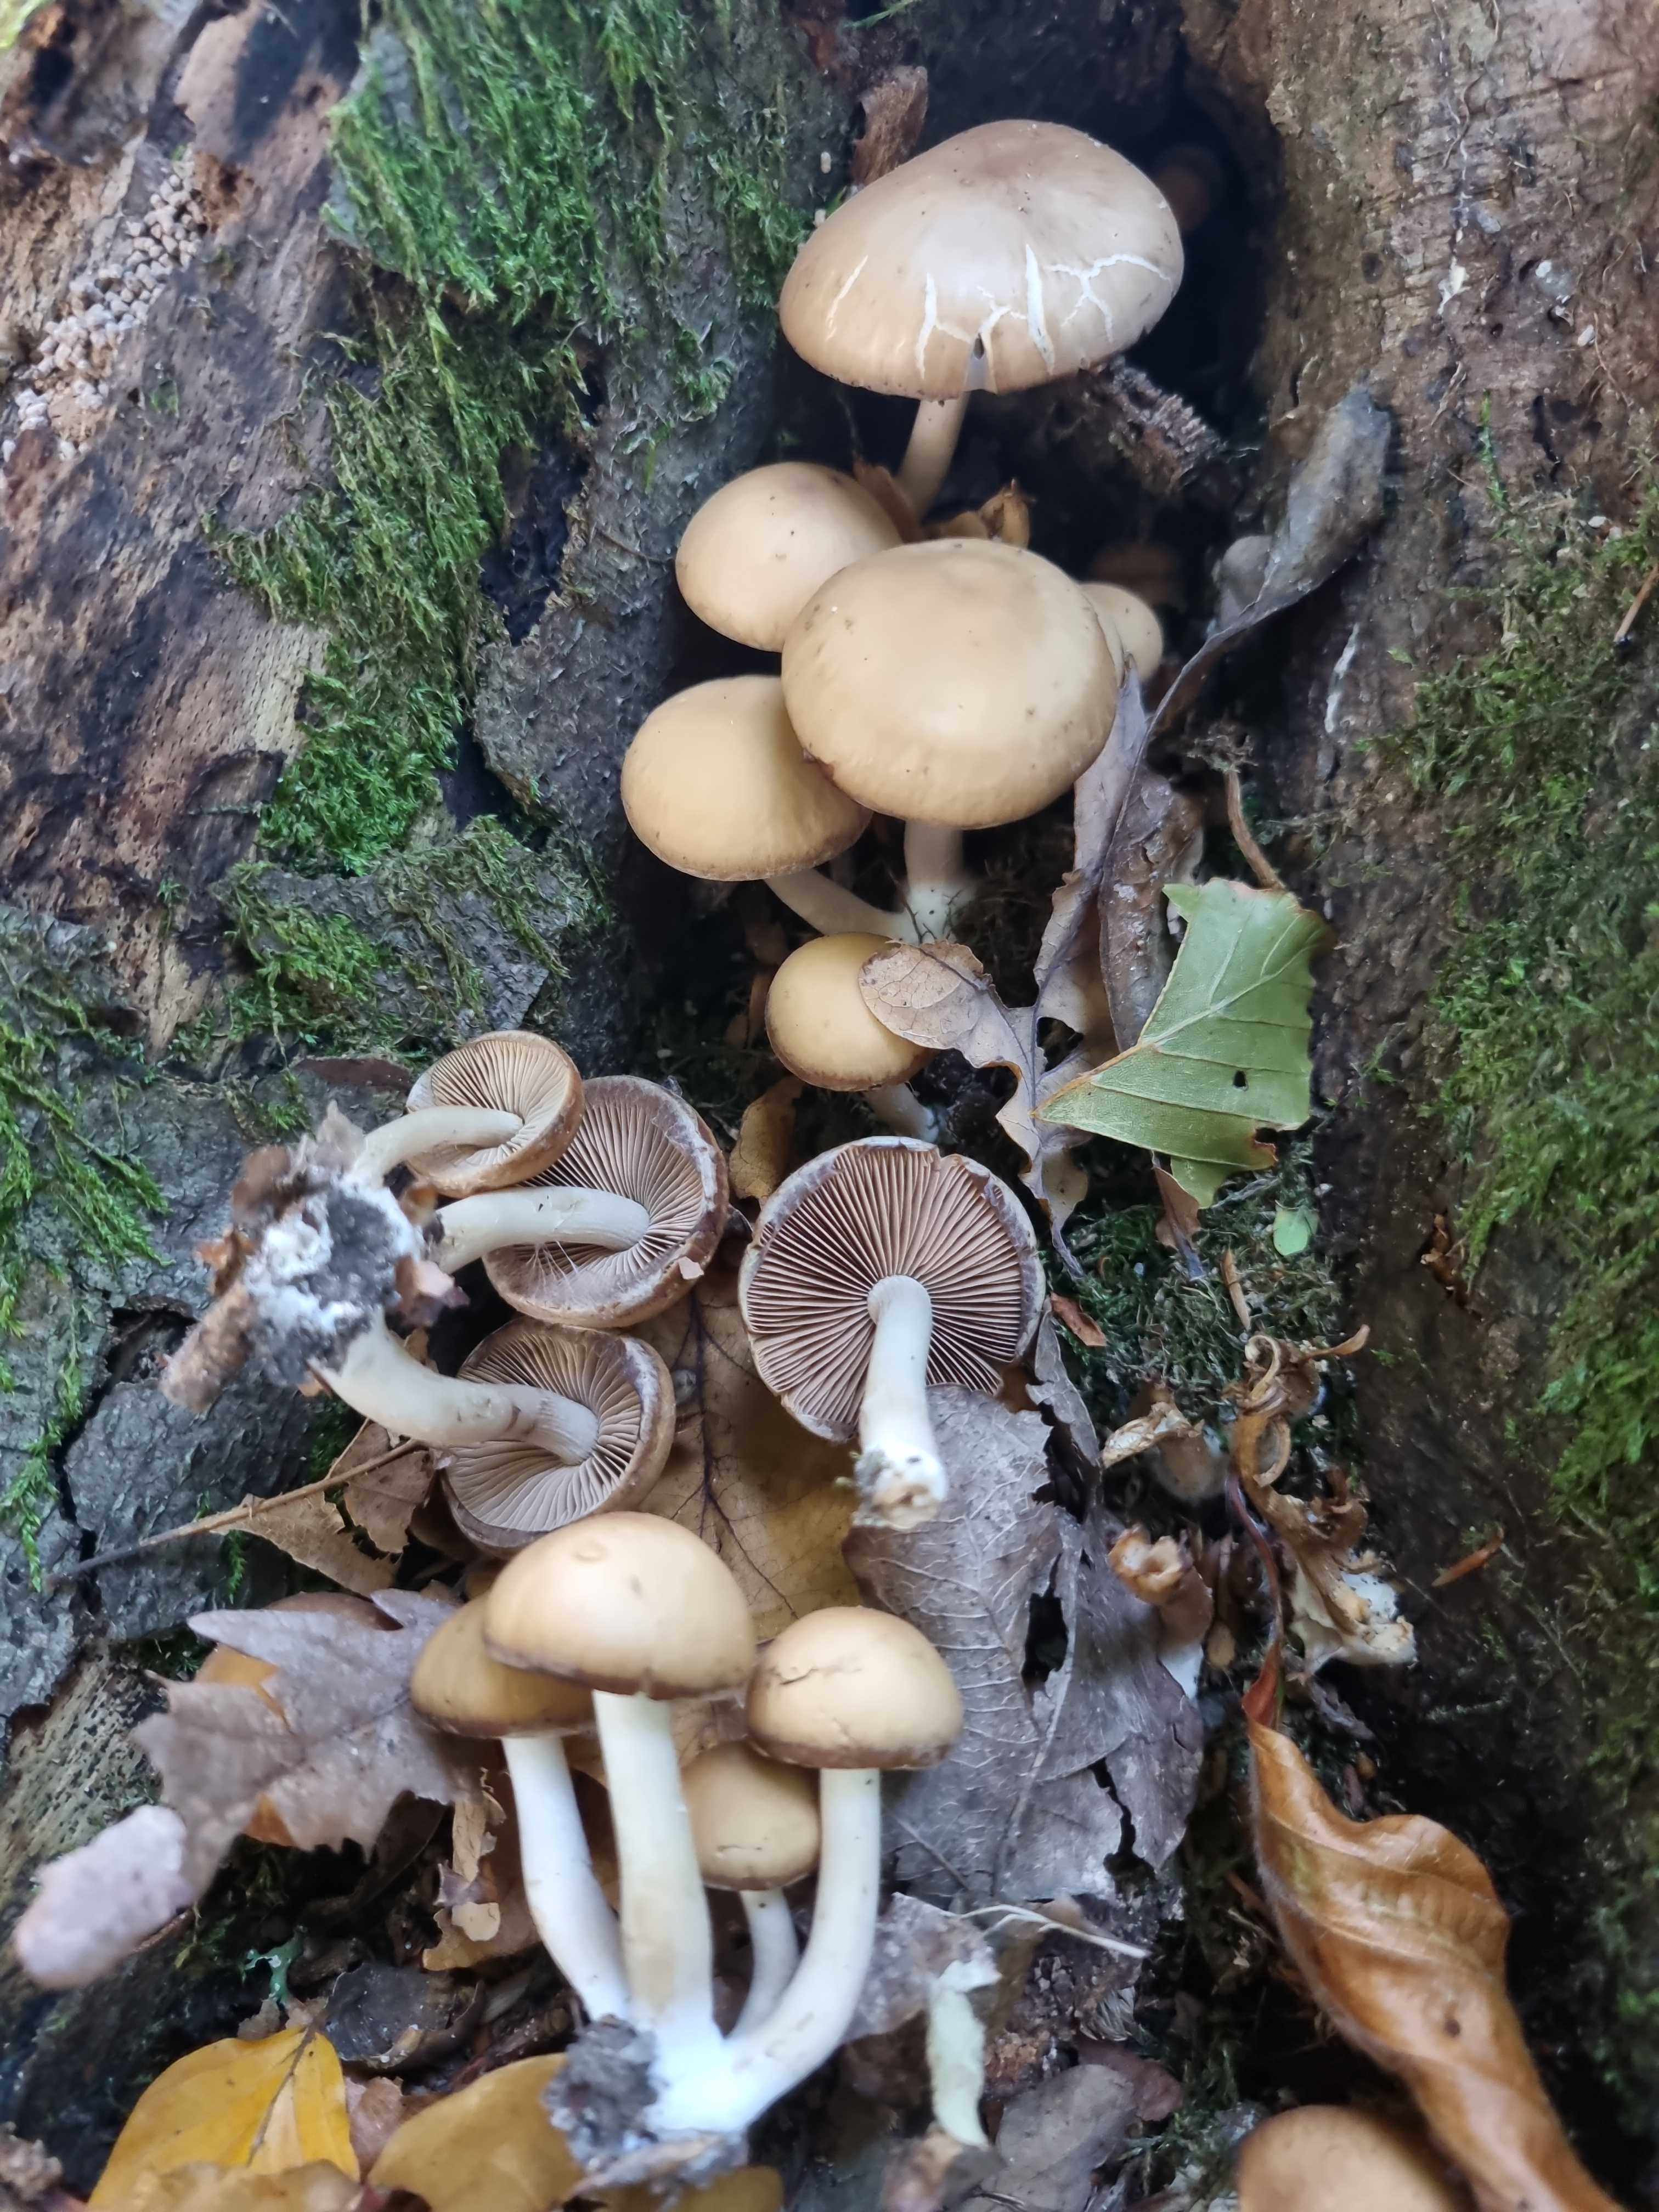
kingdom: Fungi
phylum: Basidiomycota
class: Agaricomycetes
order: Agaricales
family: Psathyrellaceae
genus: Psathyrella
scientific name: Psathyrella piluliformis
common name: lysstokket mørkhat
